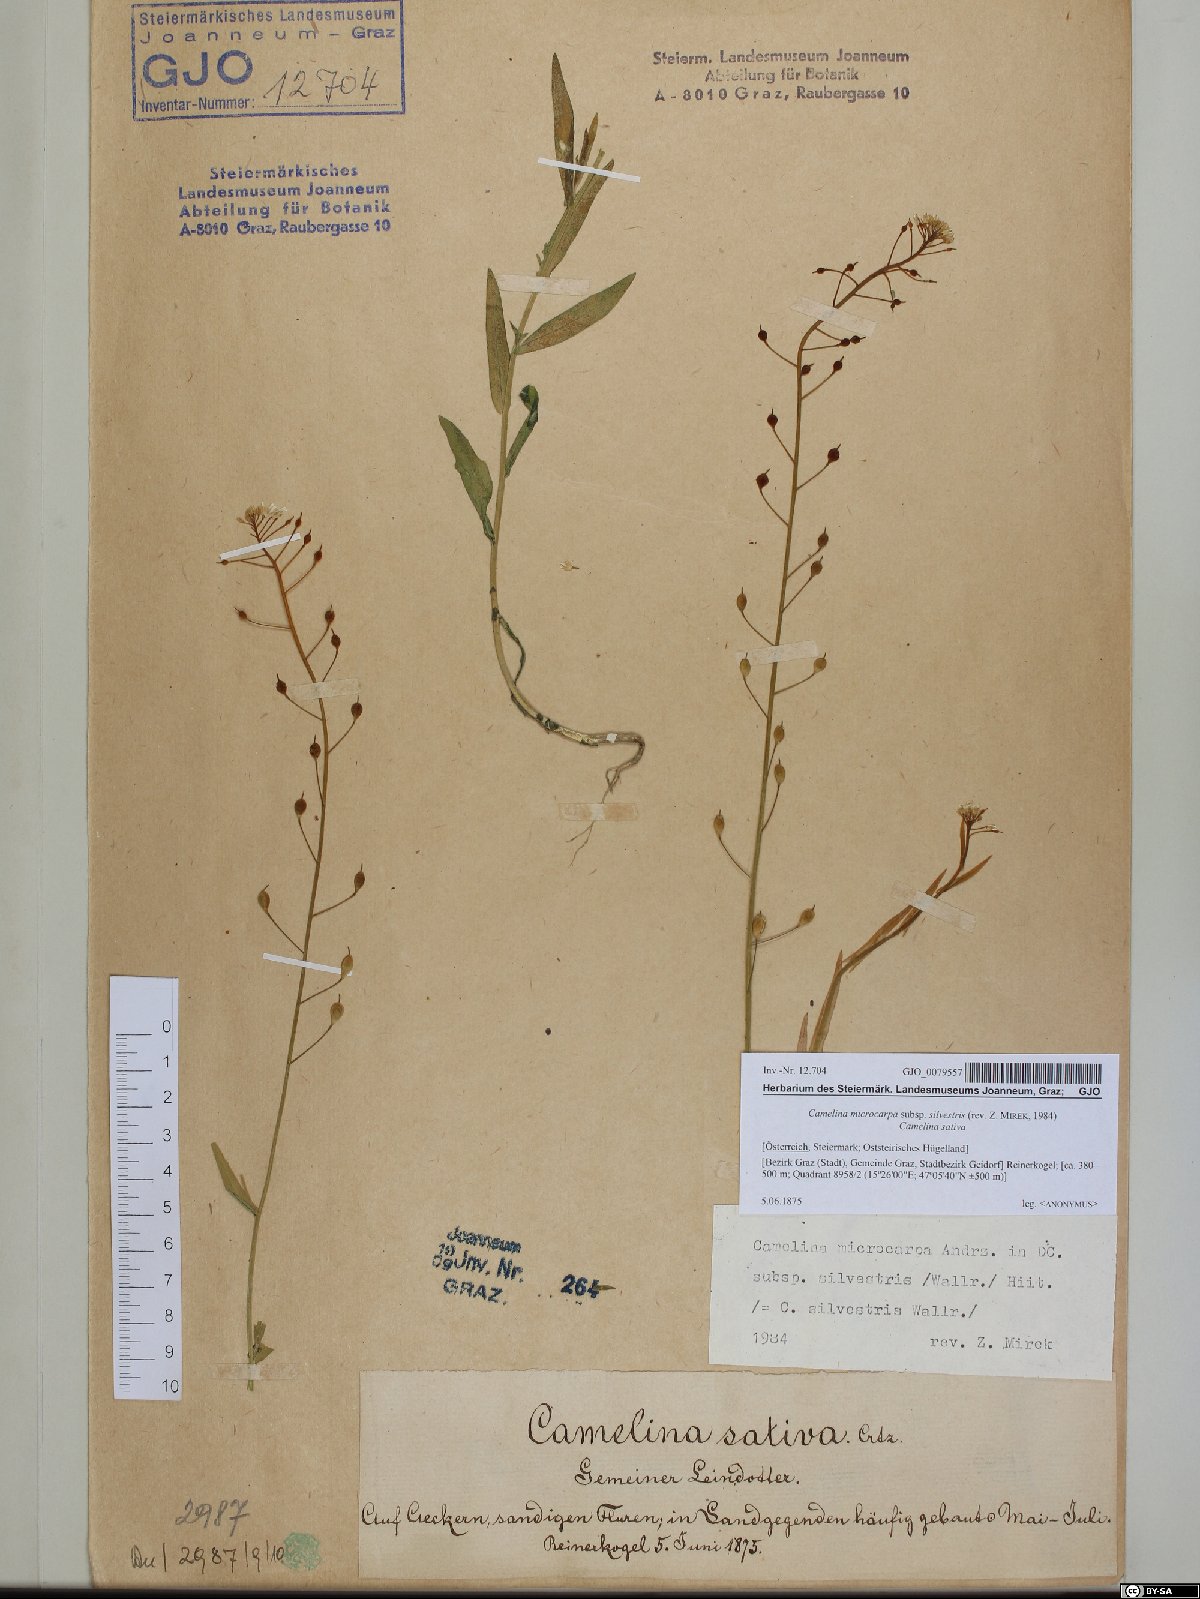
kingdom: Plantae
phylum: Tracheophyta
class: Magnoliopsida
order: Brassicales
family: Brassicaceae
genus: Camelina
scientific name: Camelina microcarpa
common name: Lesser gold-of-pleasure
